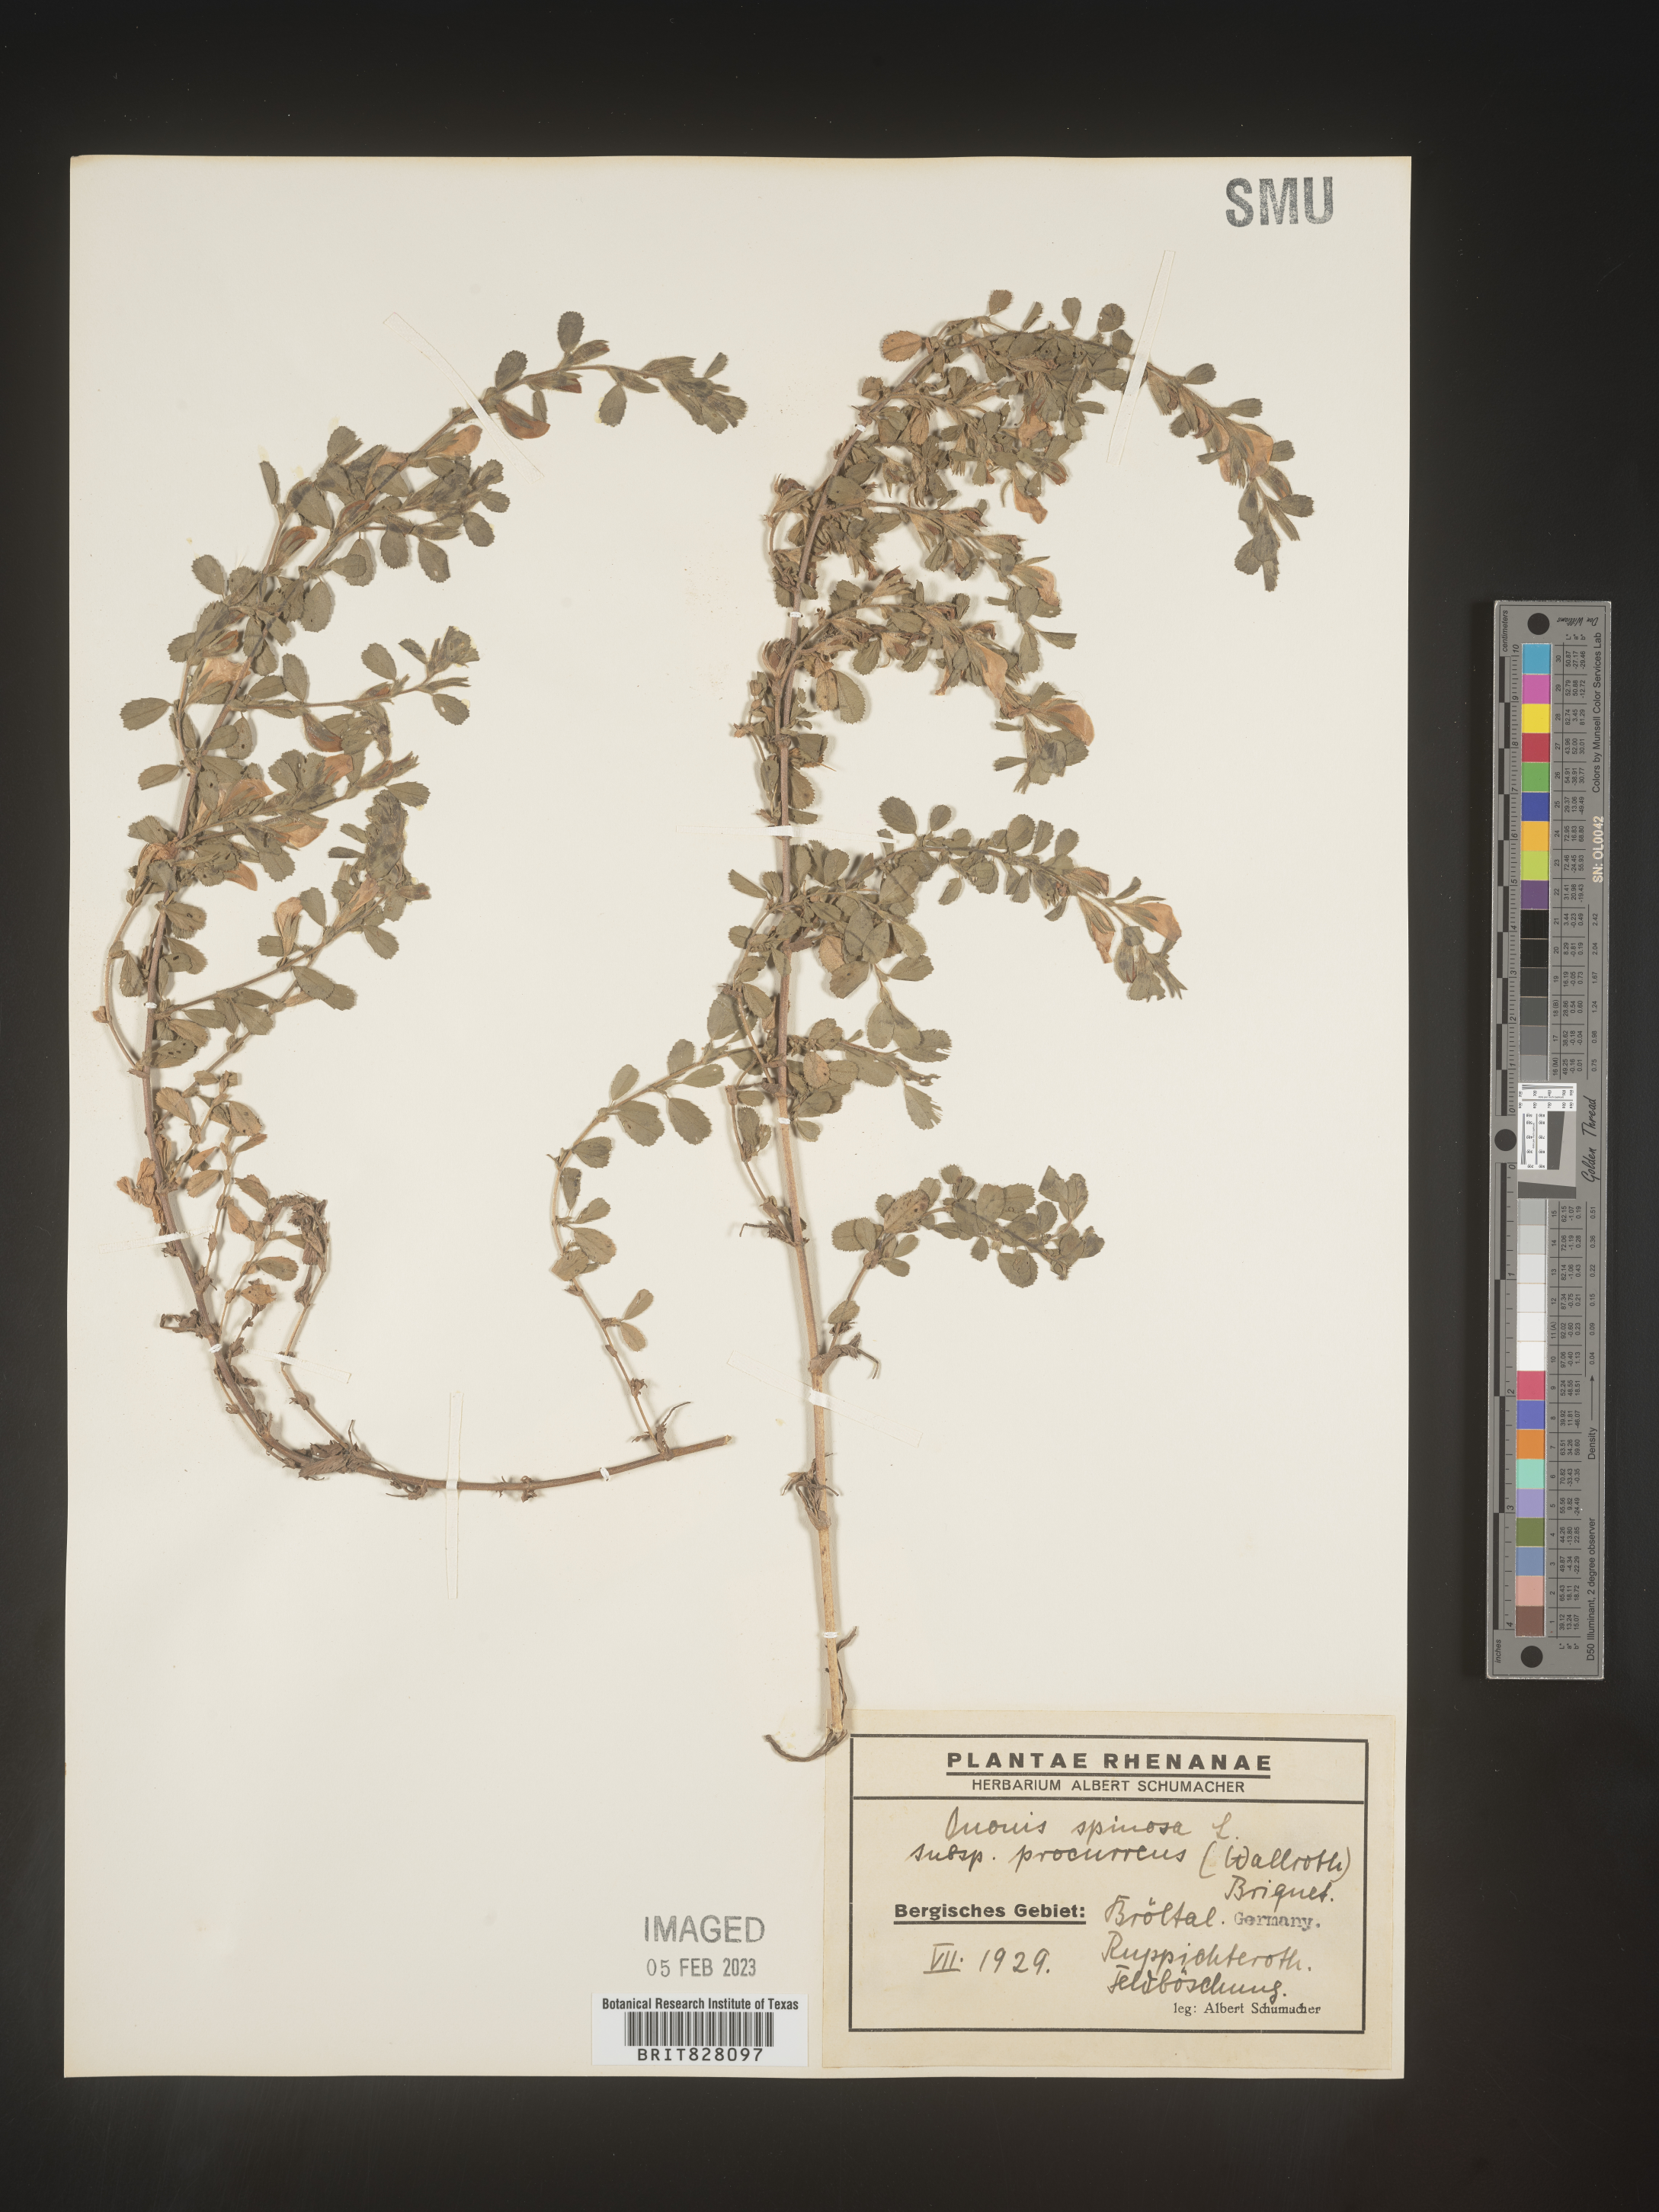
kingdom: Plantae
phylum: Tracheophyta
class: Magnoliopsida
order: Fabales
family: Fabaceae
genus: Ononis
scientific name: Ononis
